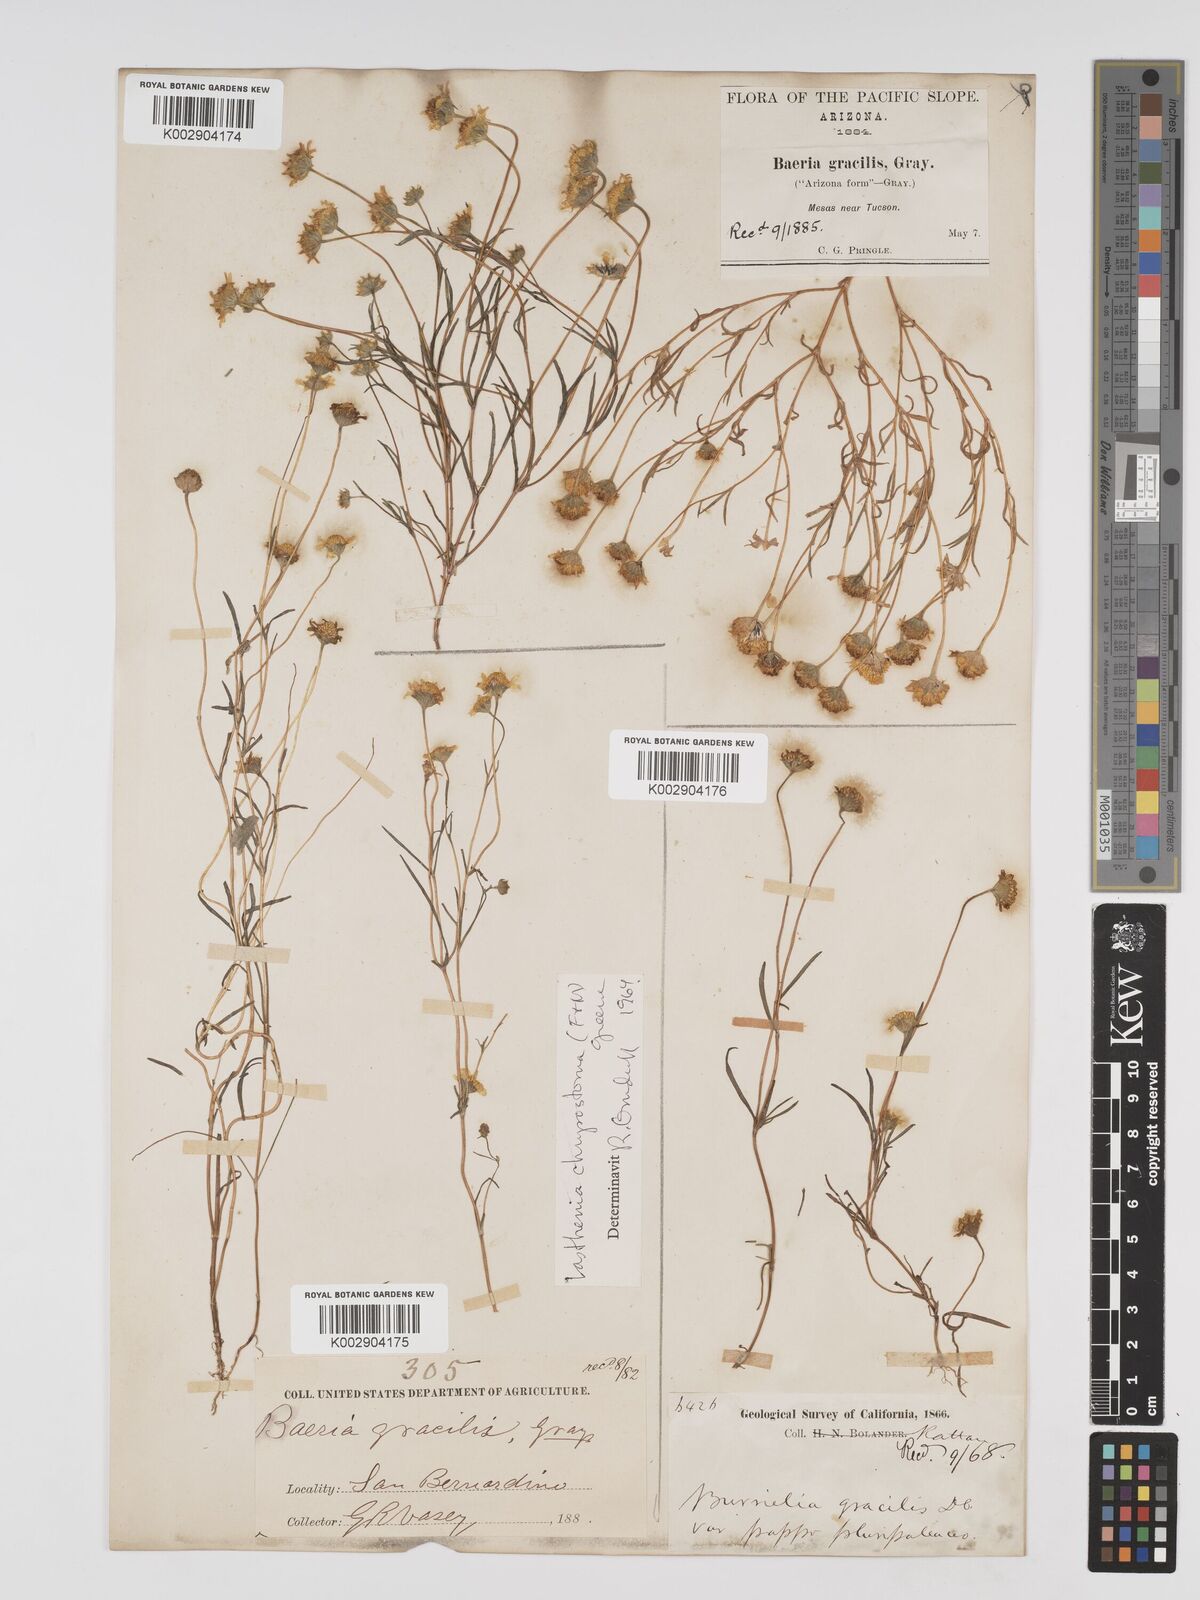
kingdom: Plantae
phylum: Tracheophyta
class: Magnoliopsida
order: Asterales
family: Asteraceae
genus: Lasthenia
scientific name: Lasthenia californica
